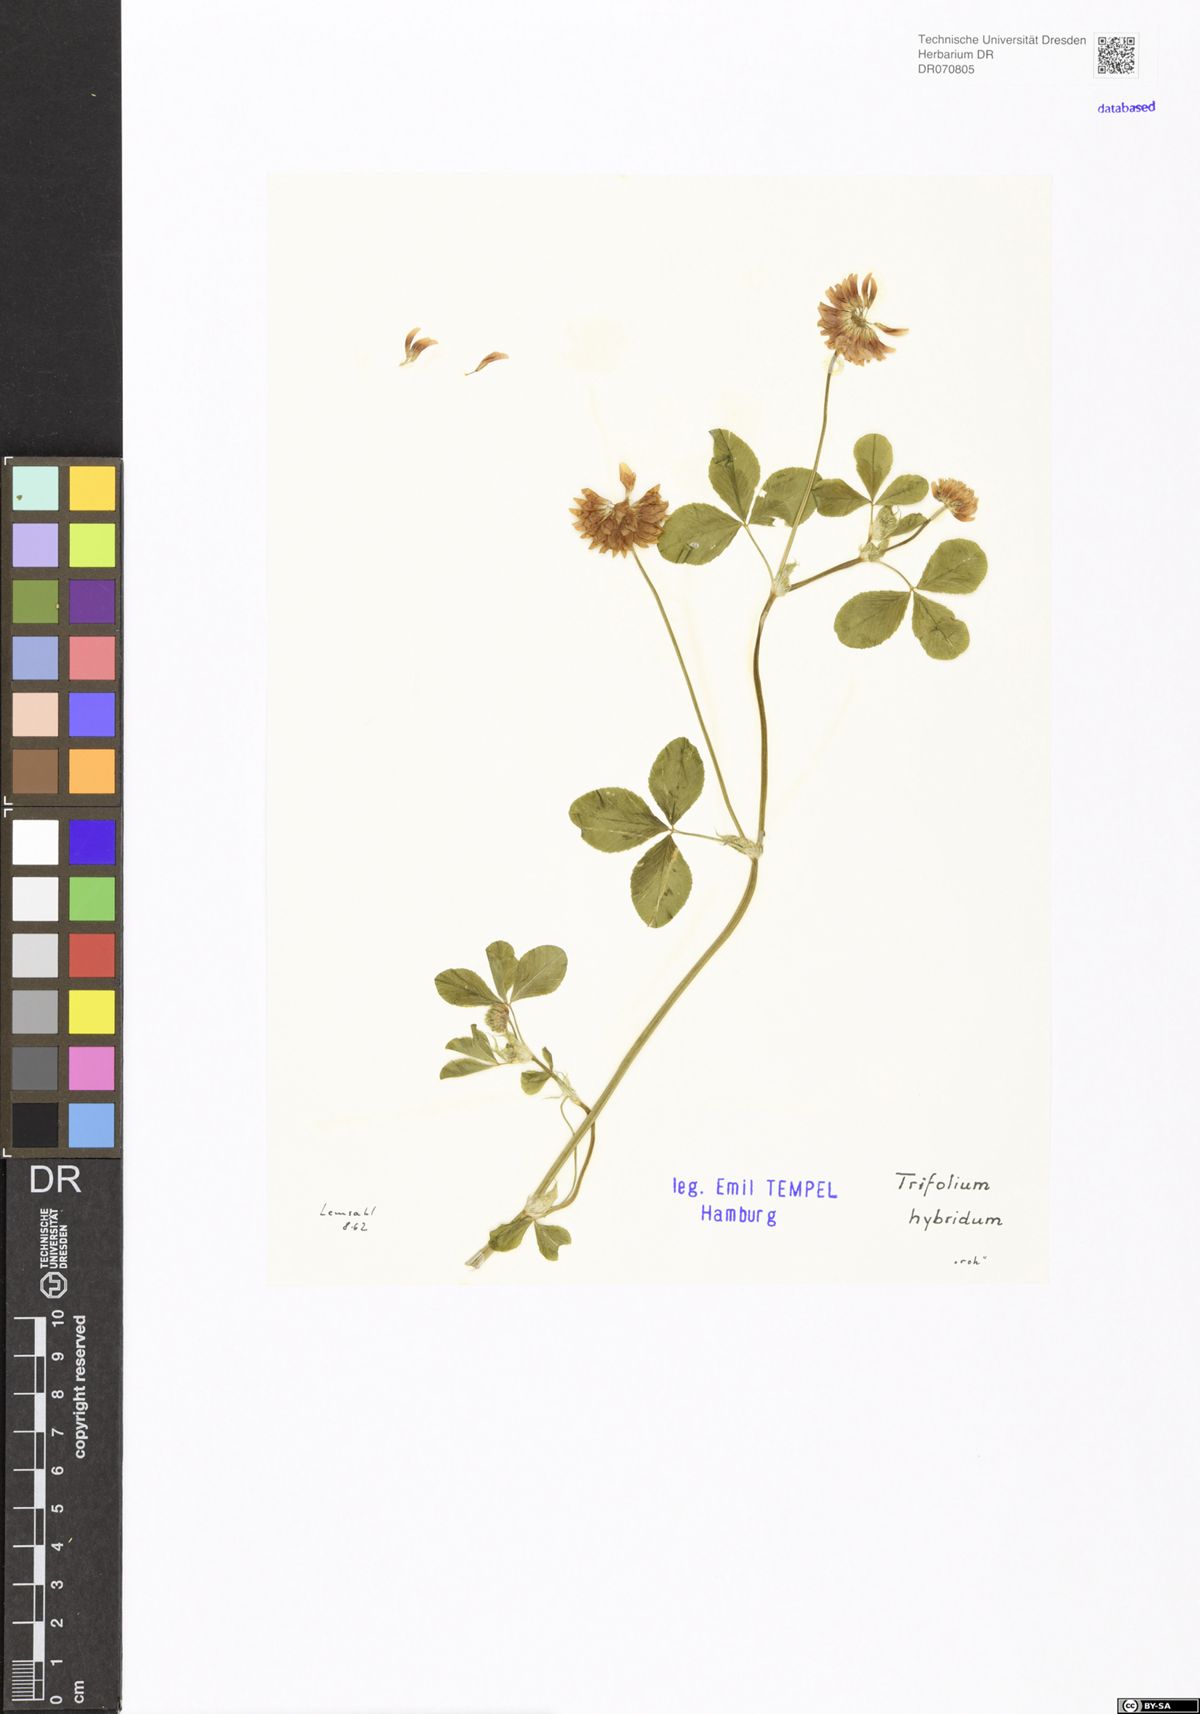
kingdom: Plantae
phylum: Tracheophyta
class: Magnoliopsida
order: Fabales
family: Fabaceae
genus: Trifolium
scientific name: Trifolium hybridum
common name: Alsike clover
